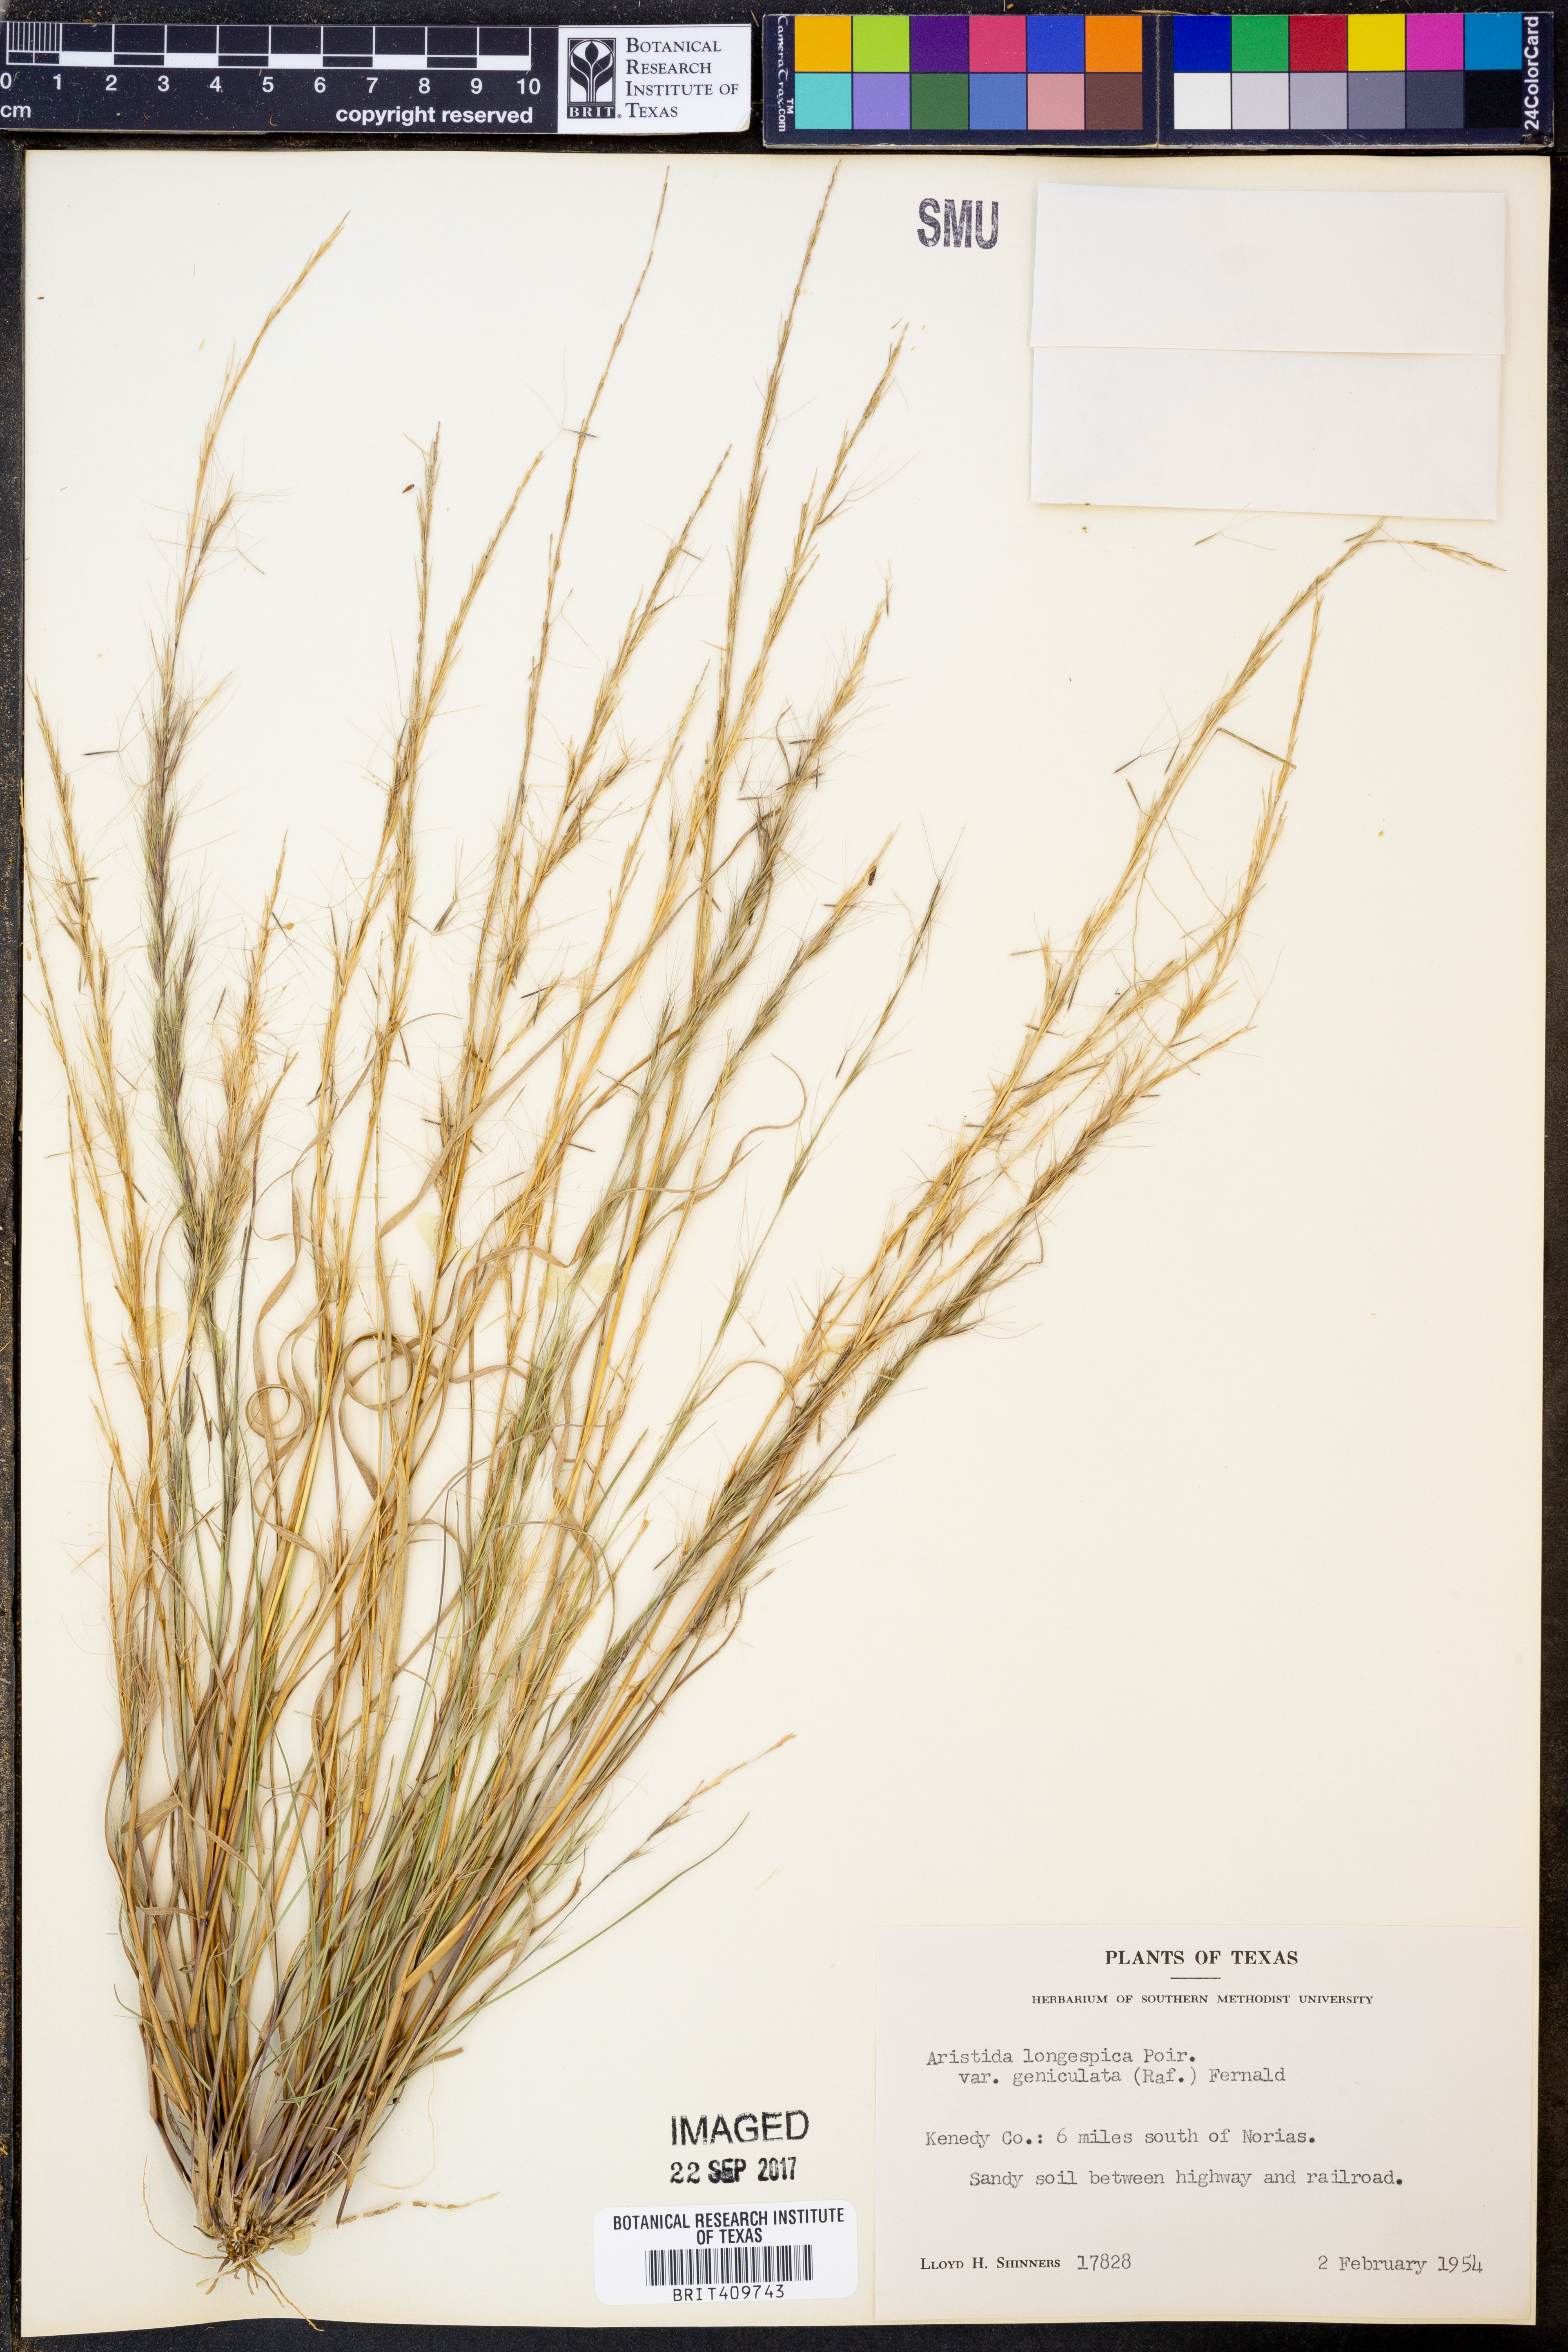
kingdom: Plantae
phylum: Tracheophyta
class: Liliopsida
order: Poales
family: Poaceae
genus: Aristida
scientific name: Aristida longespica
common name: Long-spiked triple-awned grass
